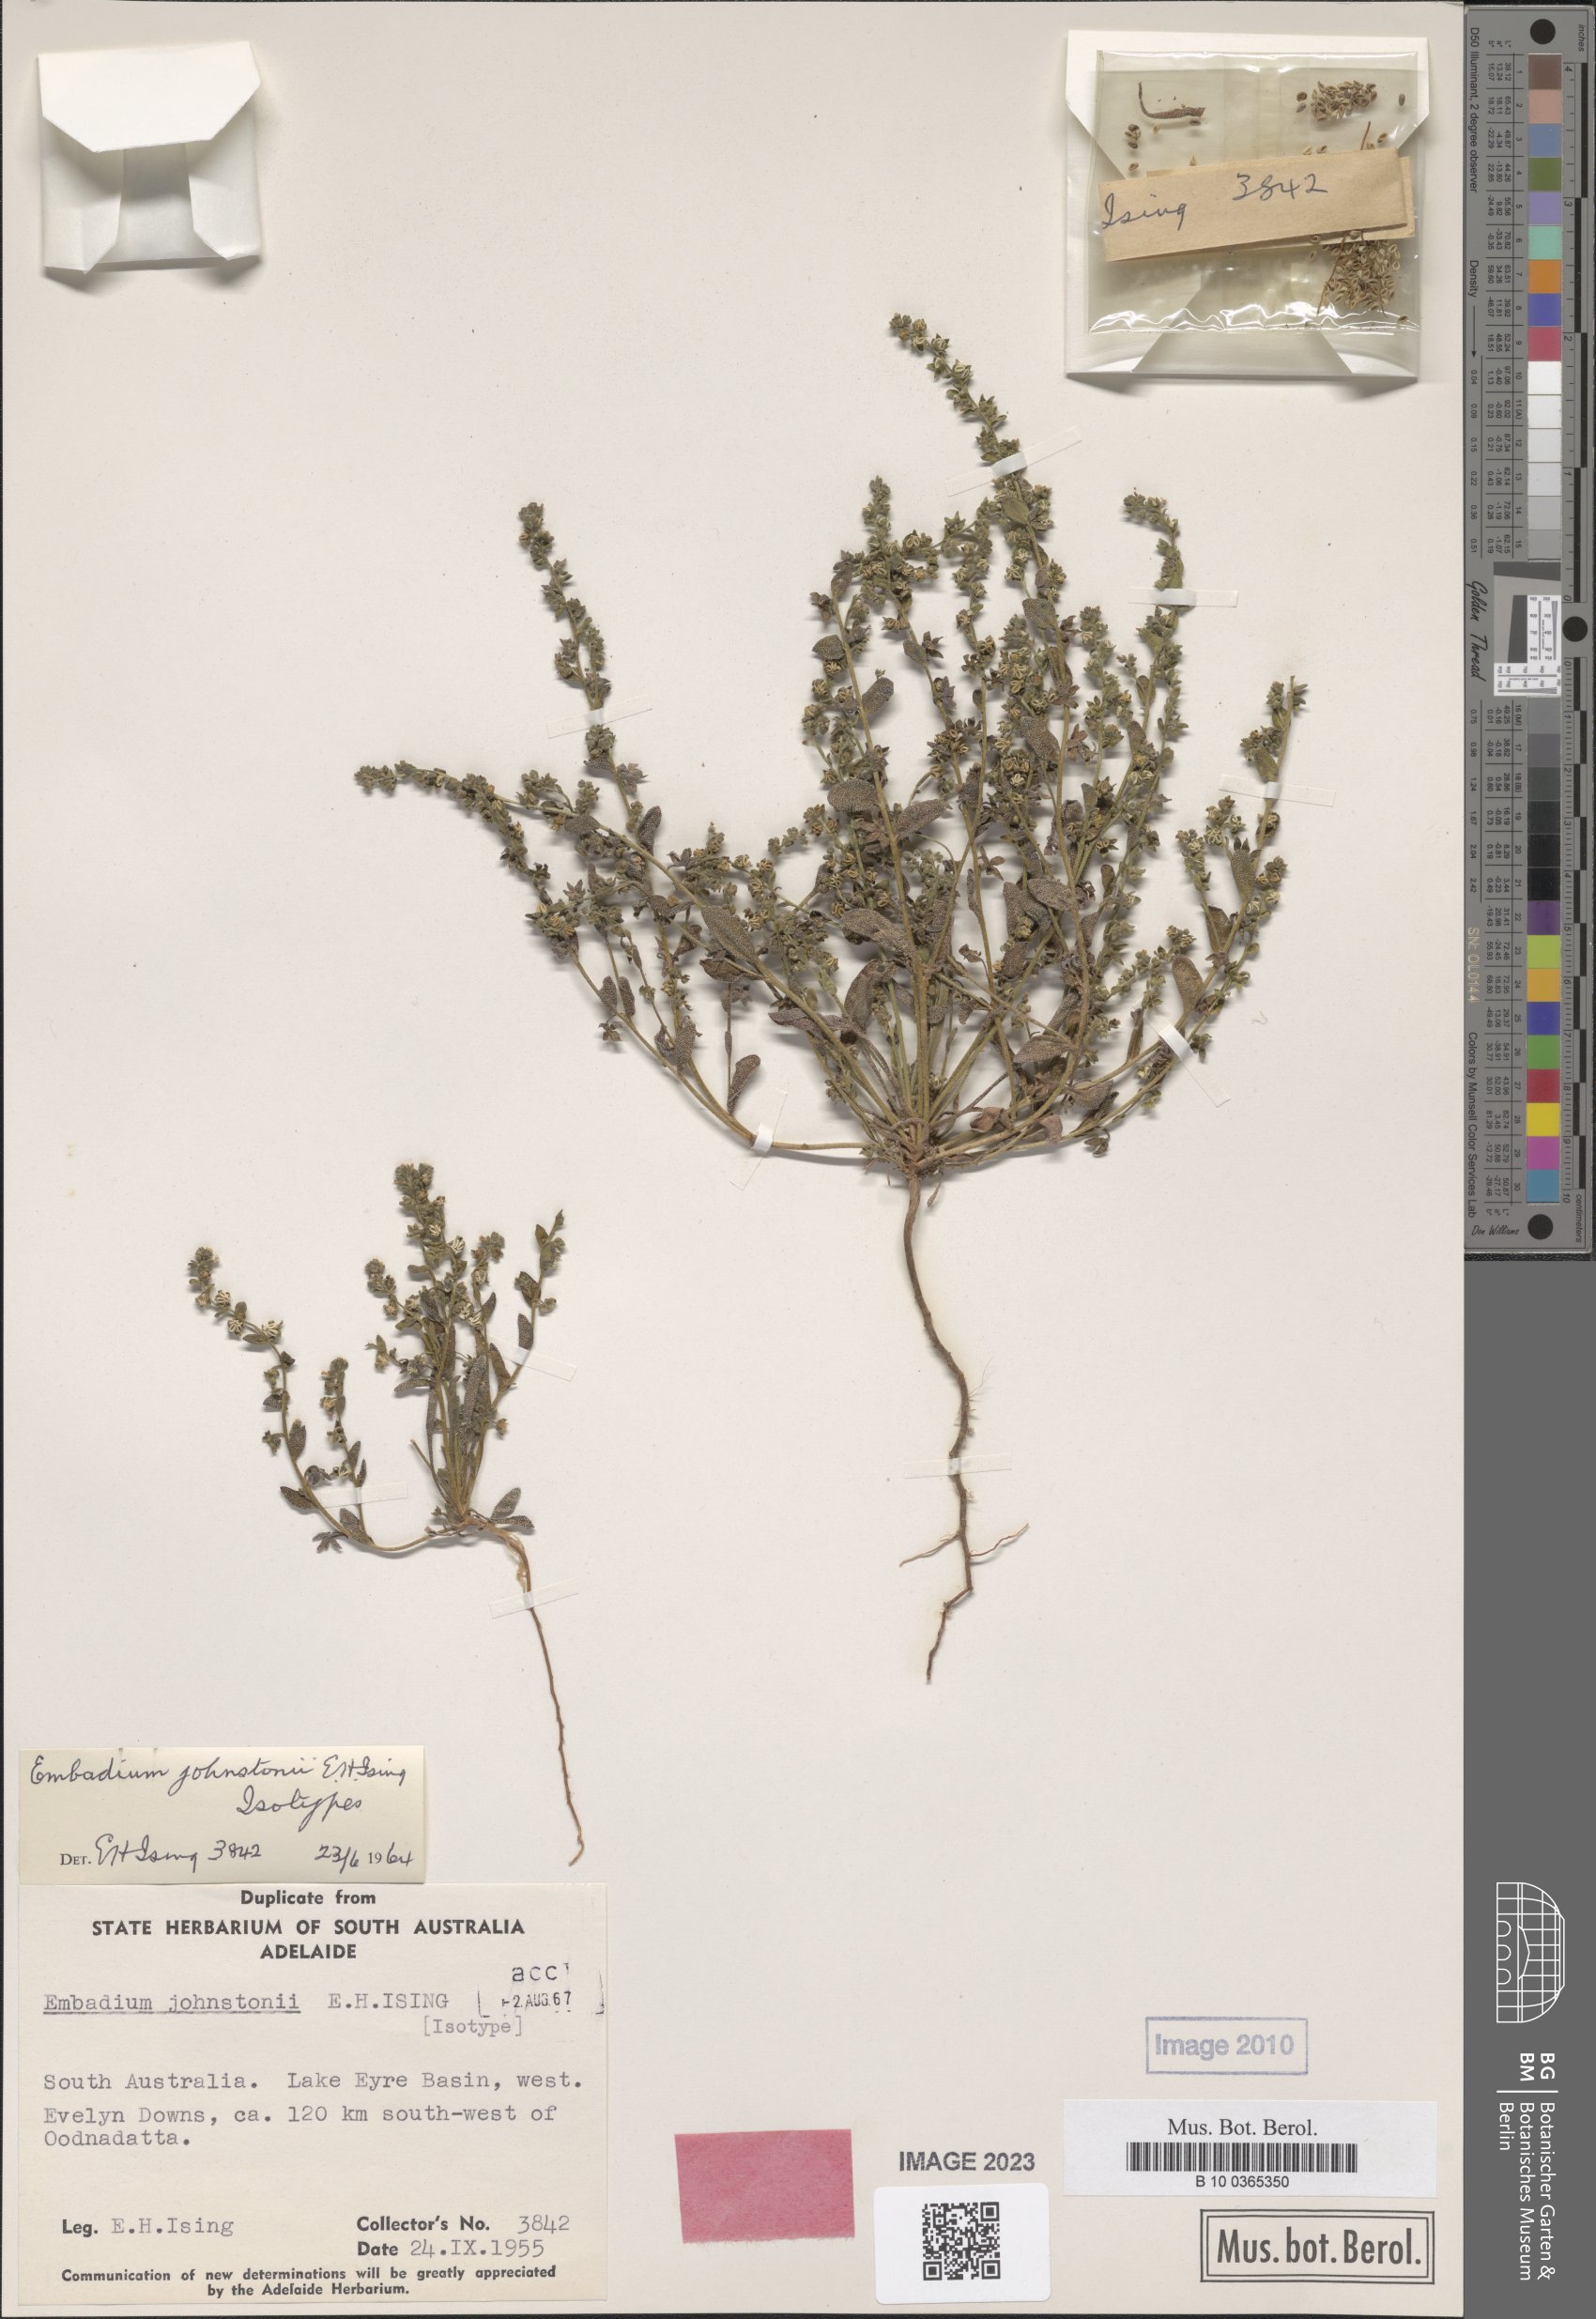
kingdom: Plantae
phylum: Tracheophyta
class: Magnoliopsida
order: Boraginales
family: Boraginaceae
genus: Embadium
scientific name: Embadium johnstonii
